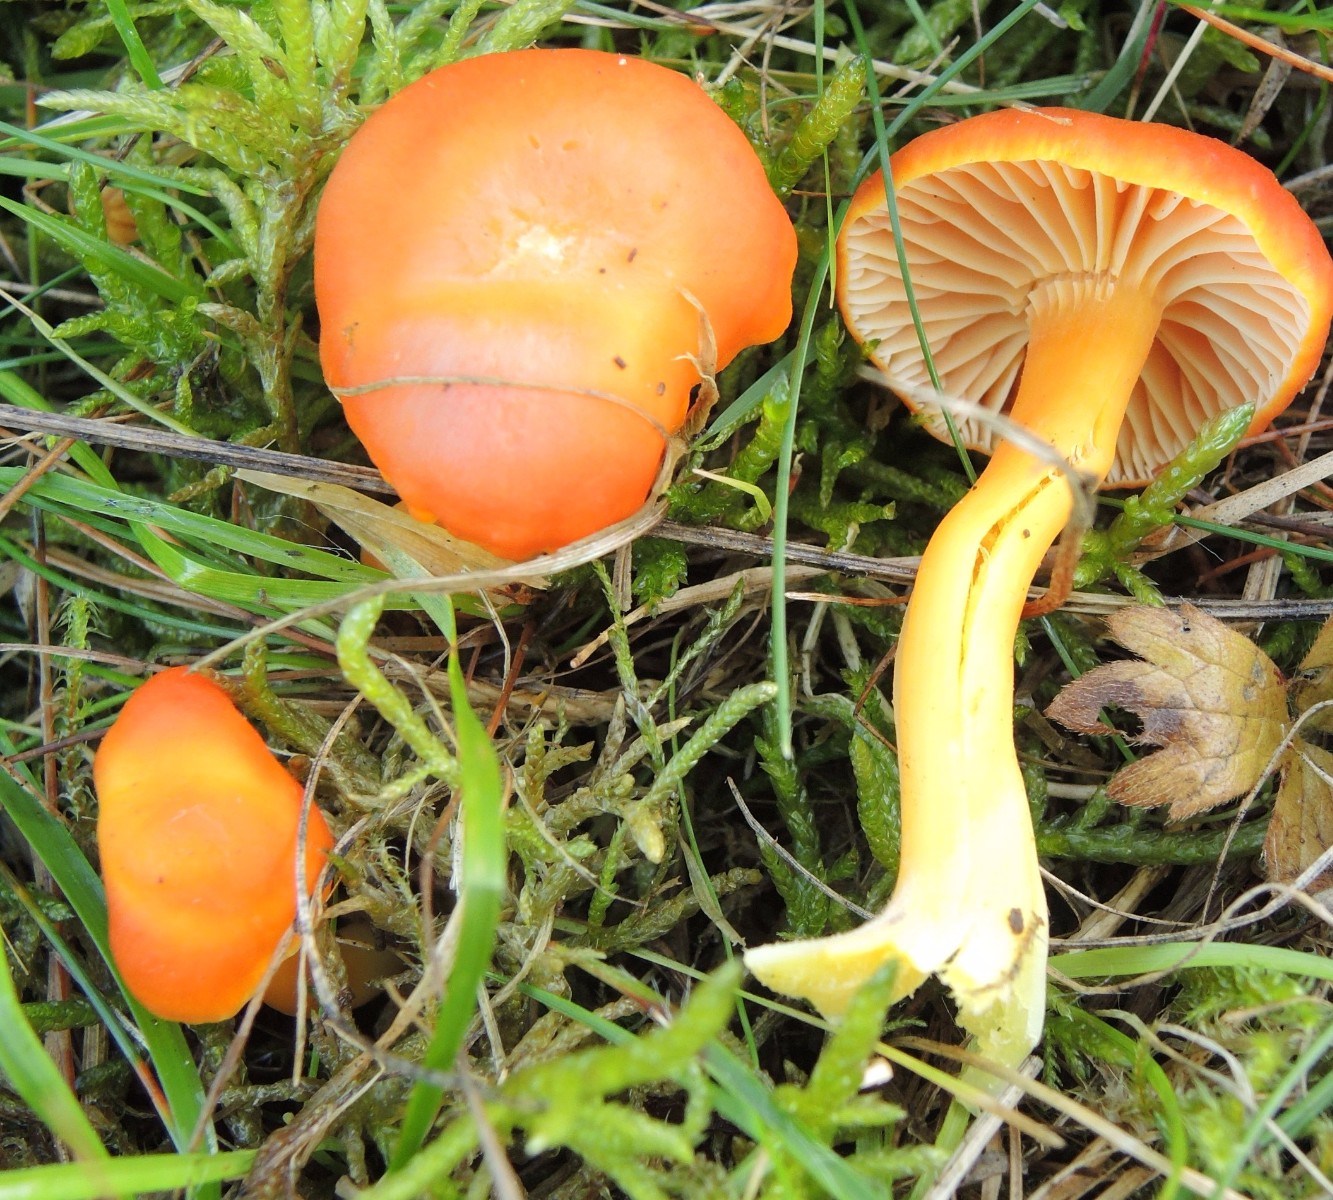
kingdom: Fungi
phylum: Basidiomycota
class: Agaricomycetes
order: Agaricales
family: Hygrophoraceae
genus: Hygrocybe
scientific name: Hygrocybe reidii
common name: honning-vokshat
